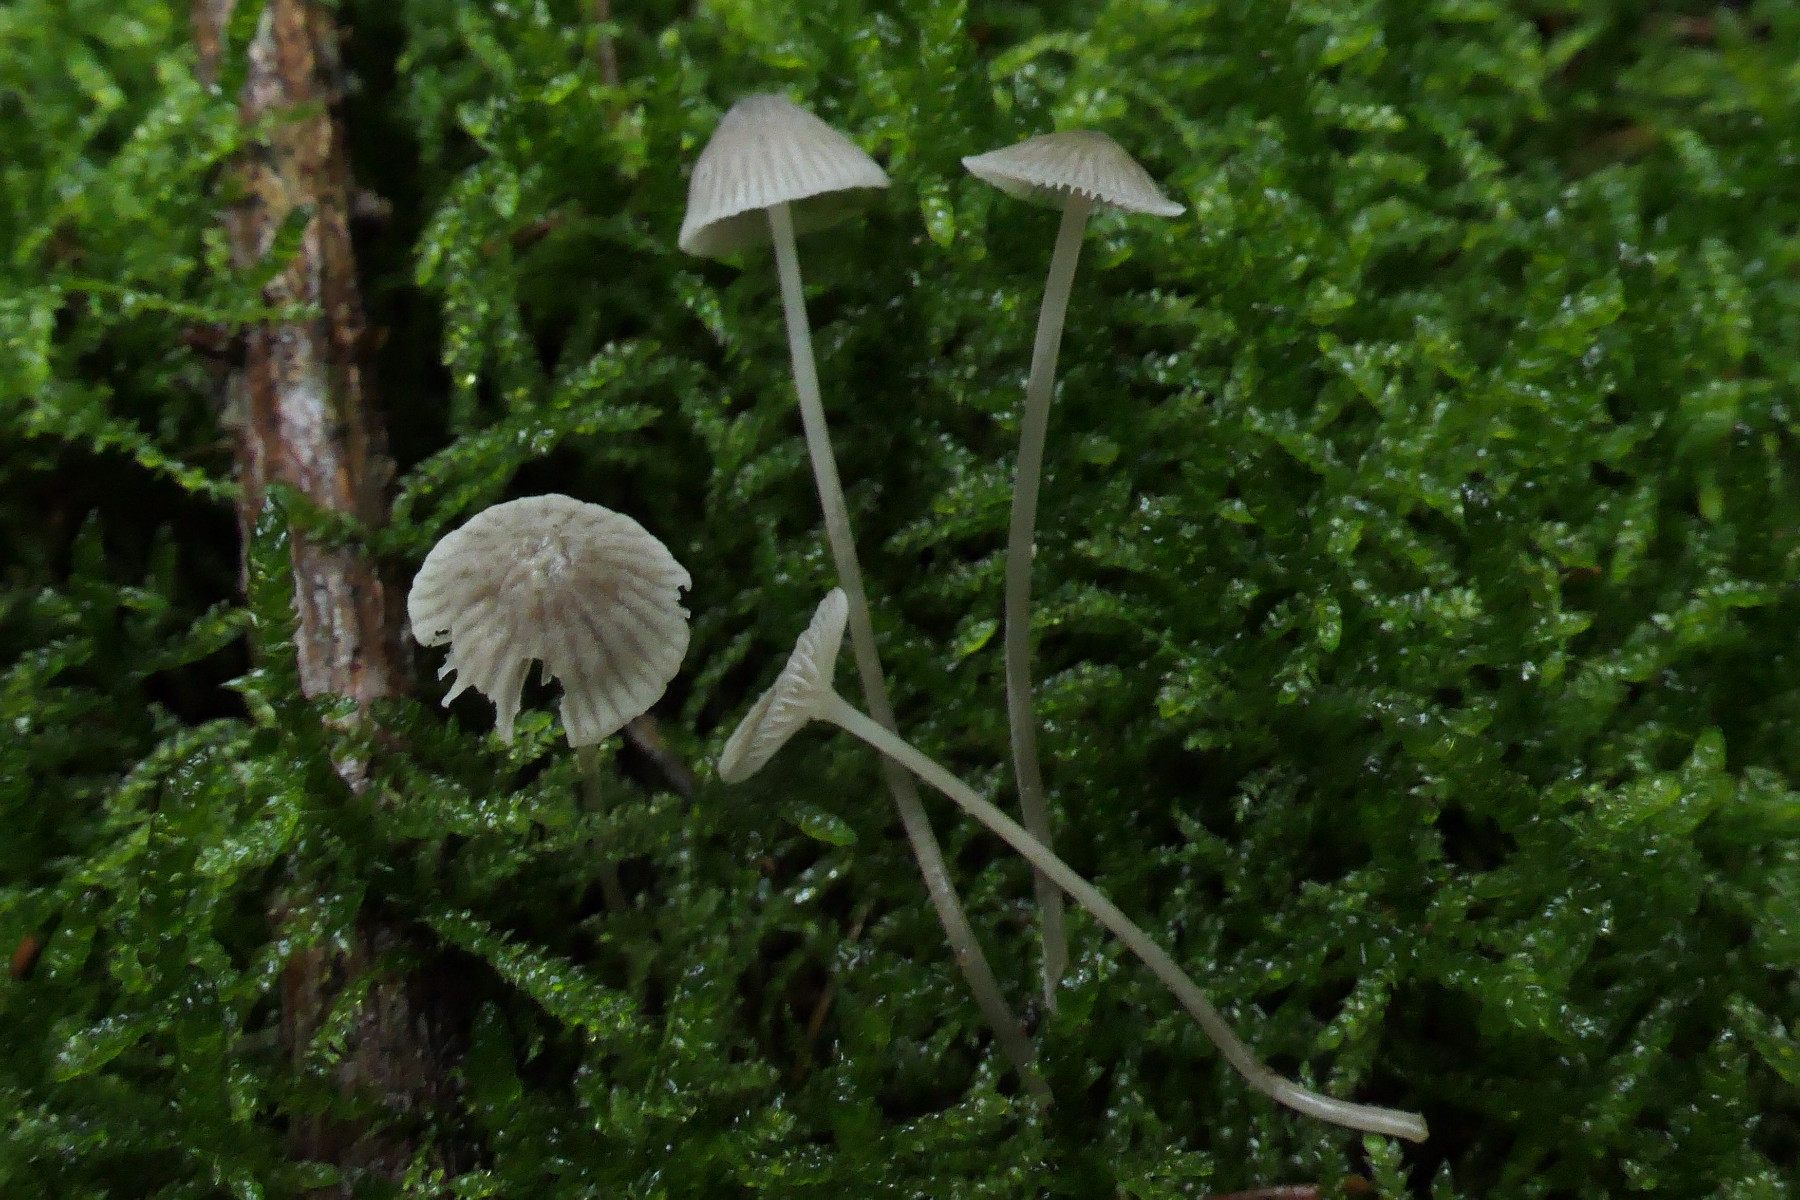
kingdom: Fungi
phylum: Basidiomycota
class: Agaricomycetes
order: Agaricales
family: Mycenaceae
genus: Mycena
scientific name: Mycena cinerella
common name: mel-huesvamp
